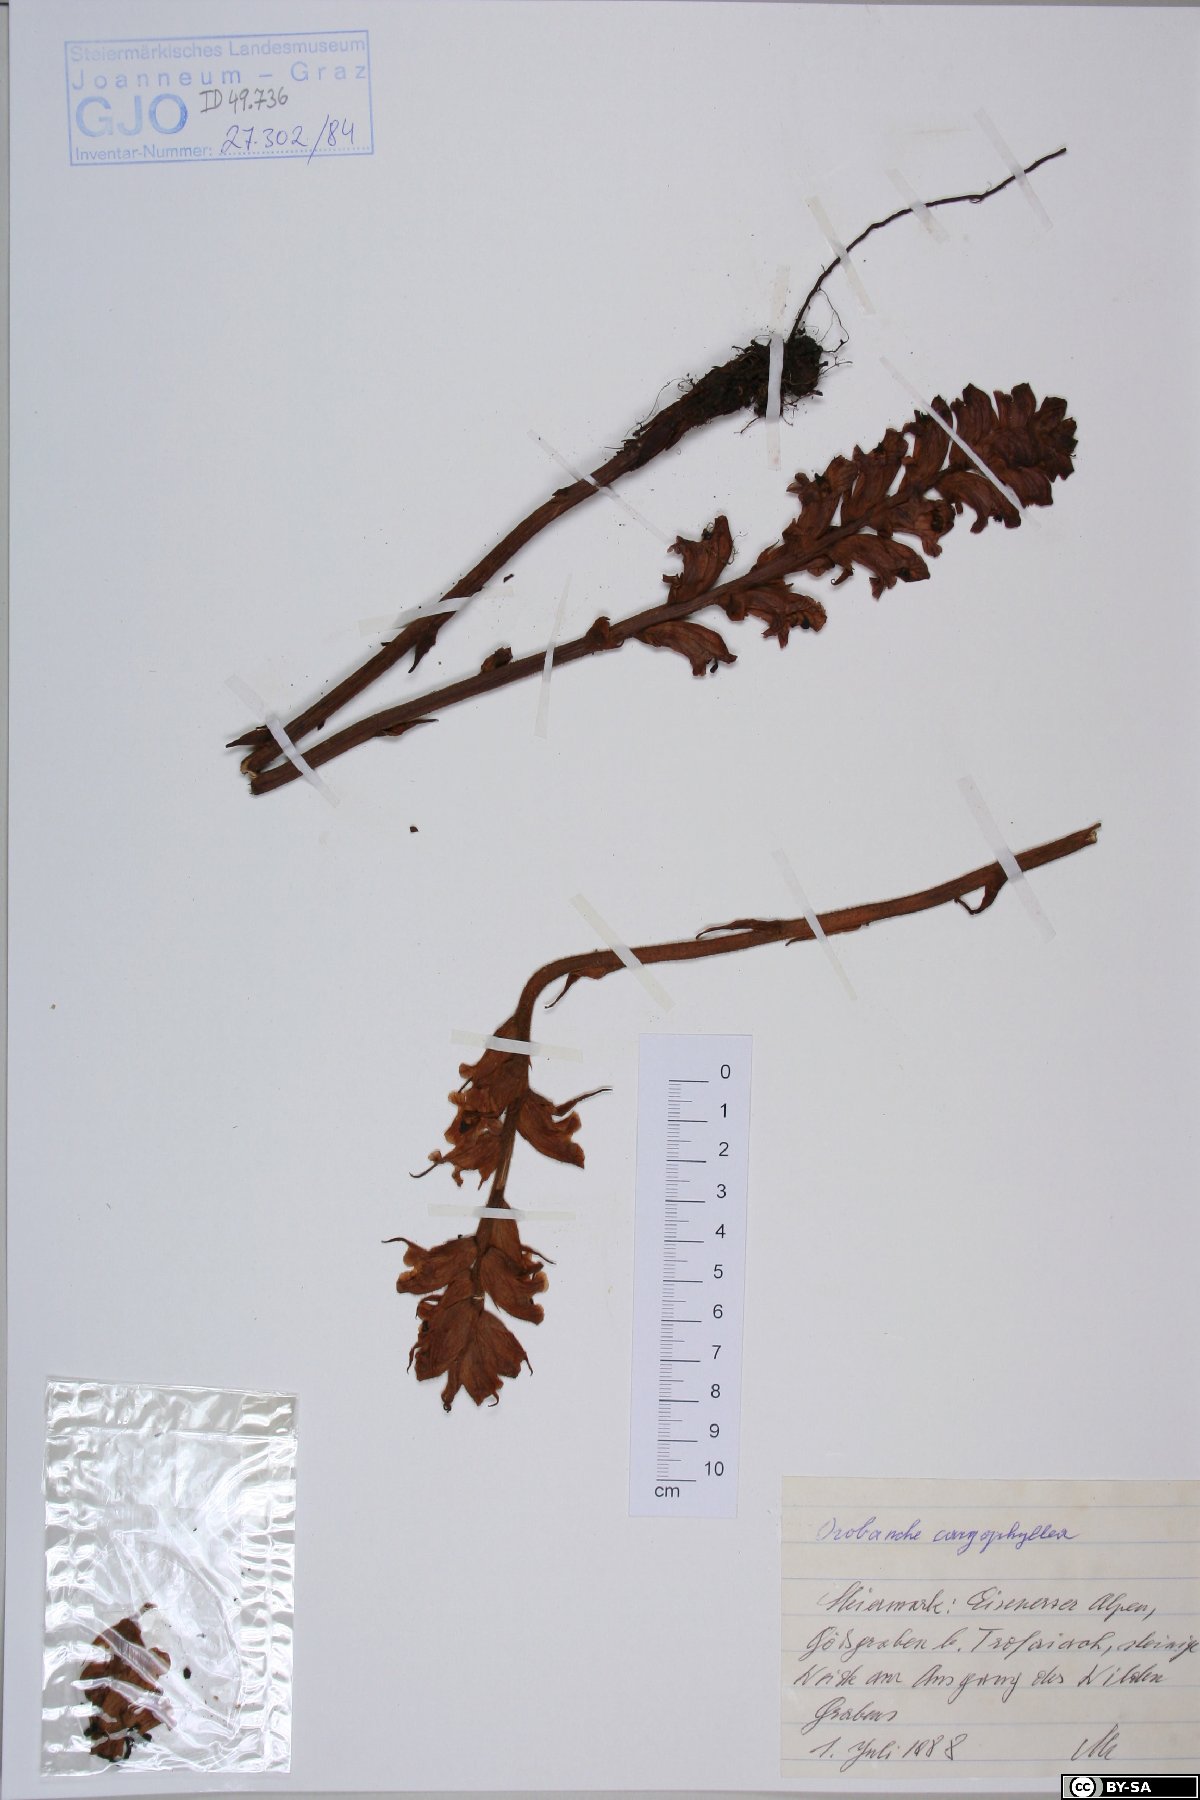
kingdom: Plantae
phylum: Tracheophyta
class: Magnoliopsida
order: Lamiales
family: Orobanchaceae
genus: Orobanche
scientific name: Orobanche caryophyllacea
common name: Bedstraw broomrape
